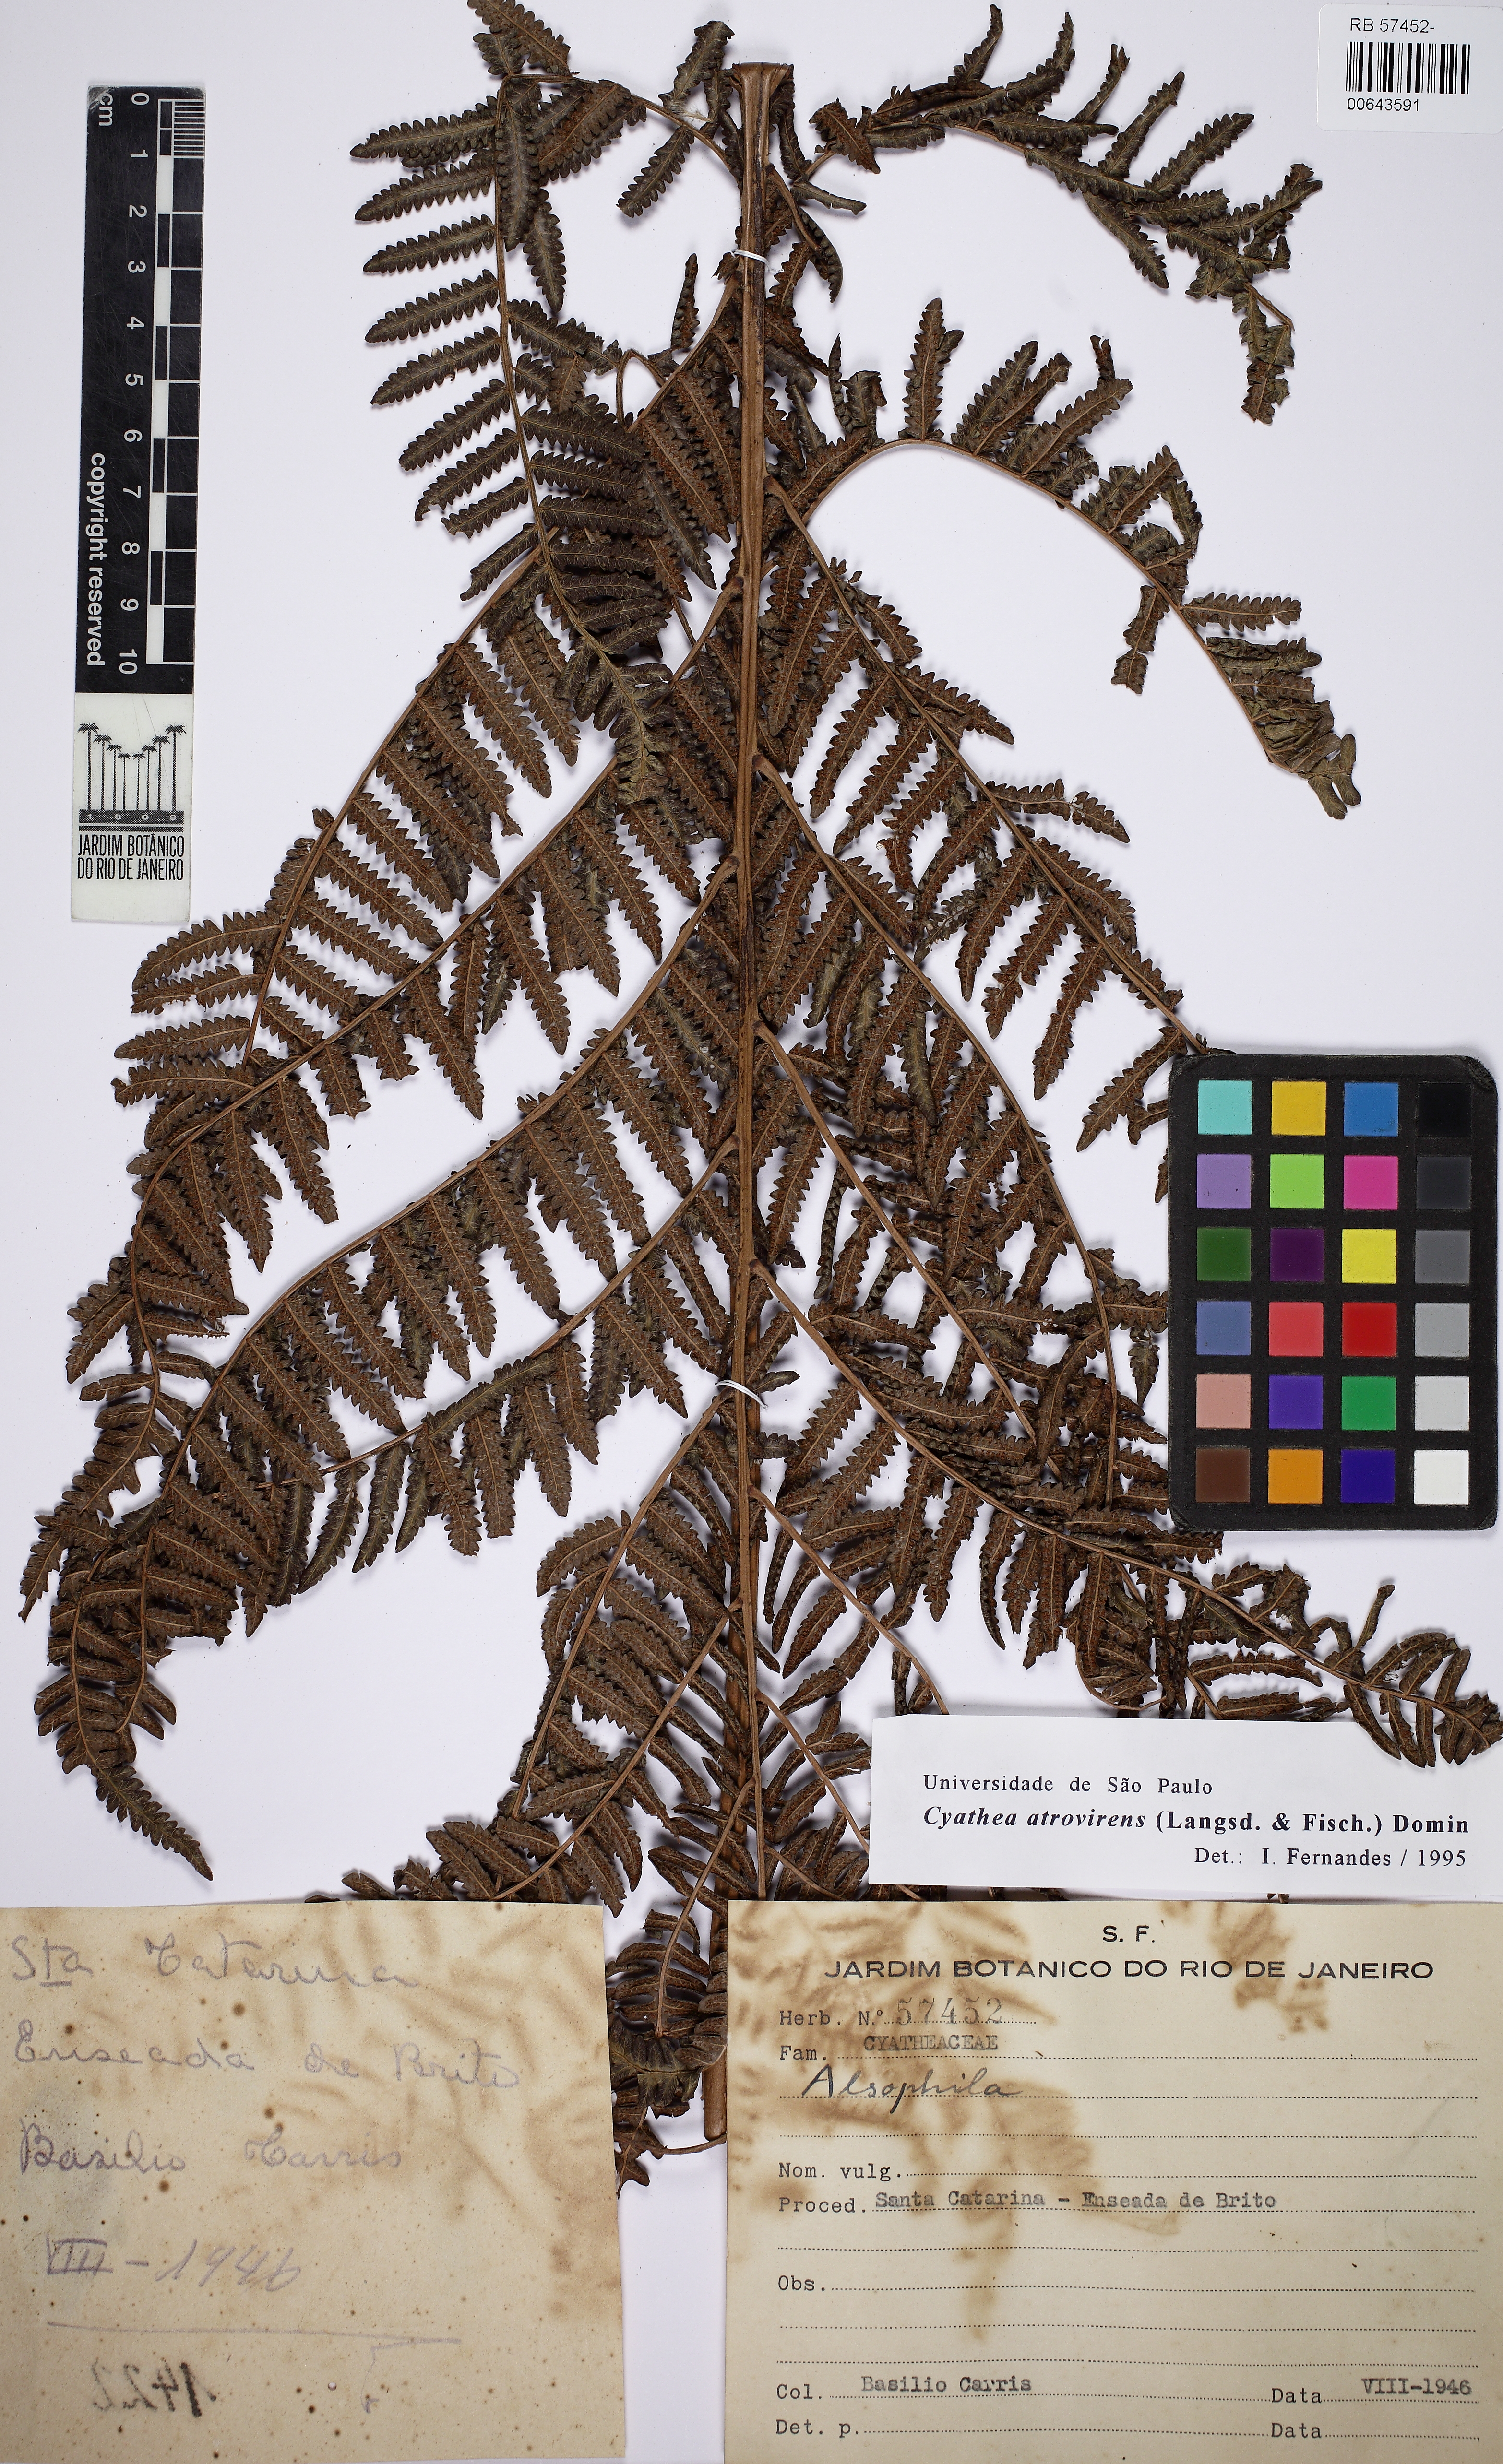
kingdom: Plantae
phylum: Tracheophyta
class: Polypodiopsida
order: Cyatheales
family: Cyatheaceae
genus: Cyathea
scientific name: Cyathea atrovirens
